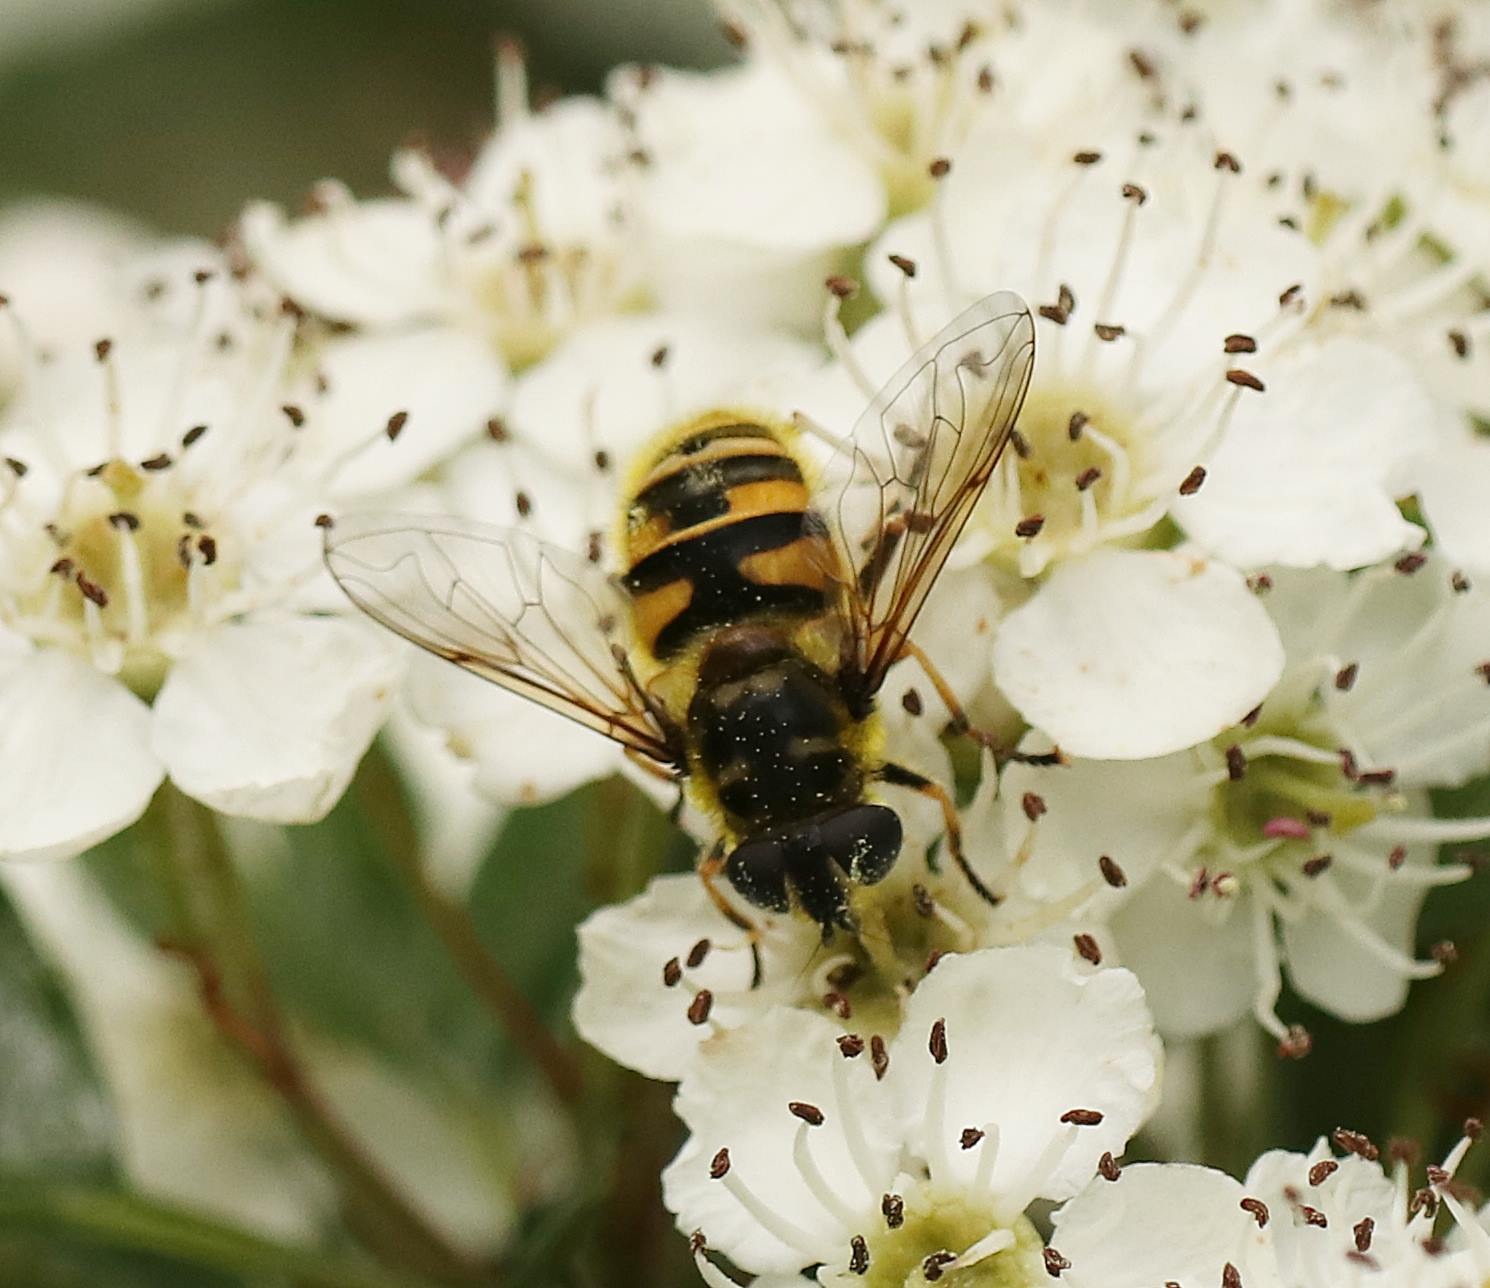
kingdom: Animalia
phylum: Arthropoda
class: Insecta
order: Diptera
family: Syrphidae
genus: Myathropa
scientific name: Myathropa florea
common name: Dødningehoved-svirreflue
